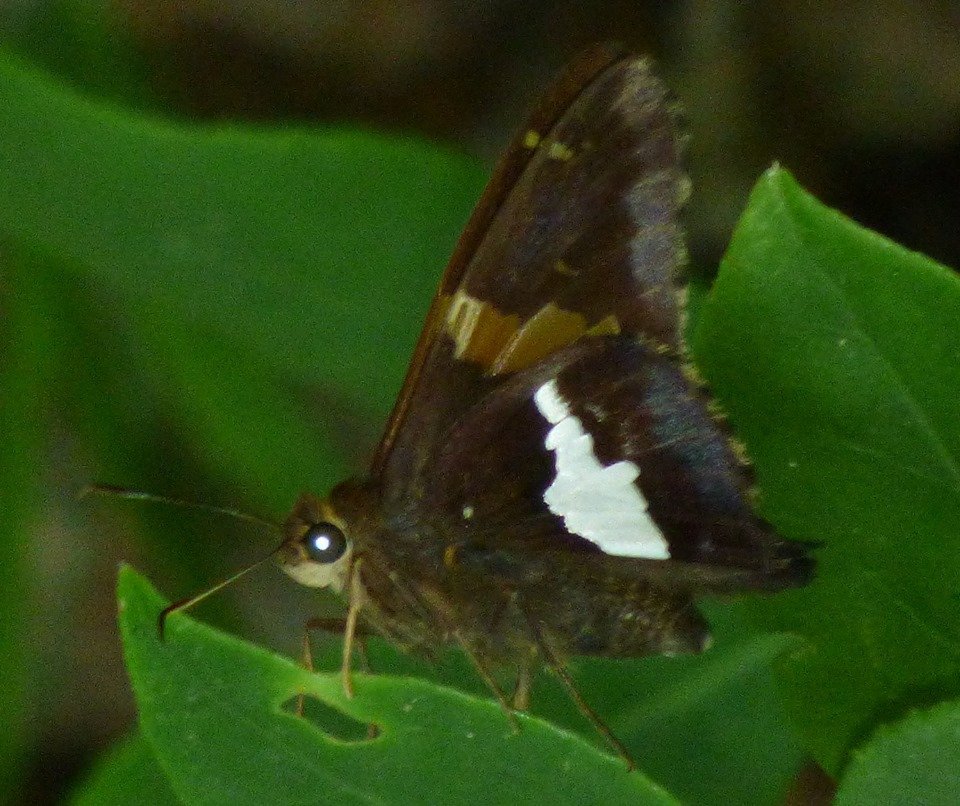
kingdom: Animalia
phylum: Arthropoda
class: Insecta
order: Lepidoptera
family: Hesperiidae
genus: Epargyreus
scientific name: Epargyreus clarus
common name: Silver-spotted Skipper
